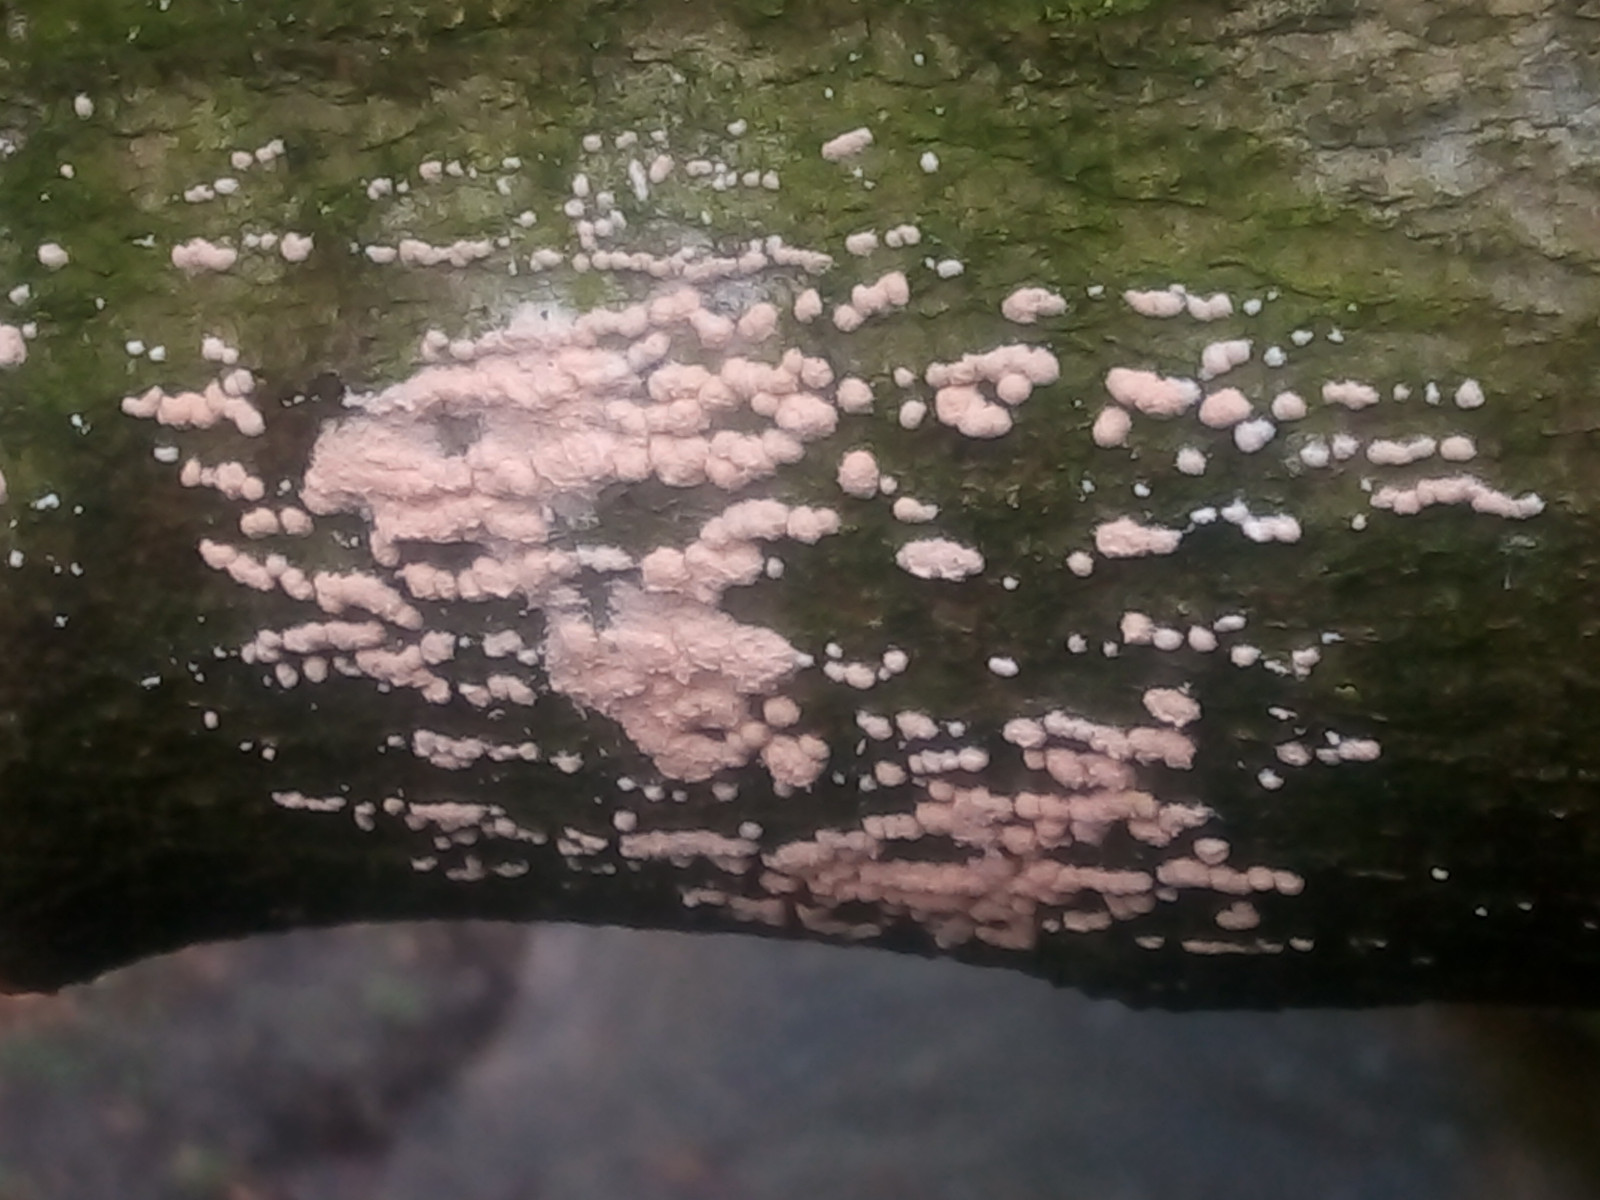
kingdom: Fungi
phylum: Ascomycota
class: Sordariomycetes
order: Hypocreales
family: Myrotheciomycetaceae
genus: Trichothecium
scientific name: Trichothecium roseum
